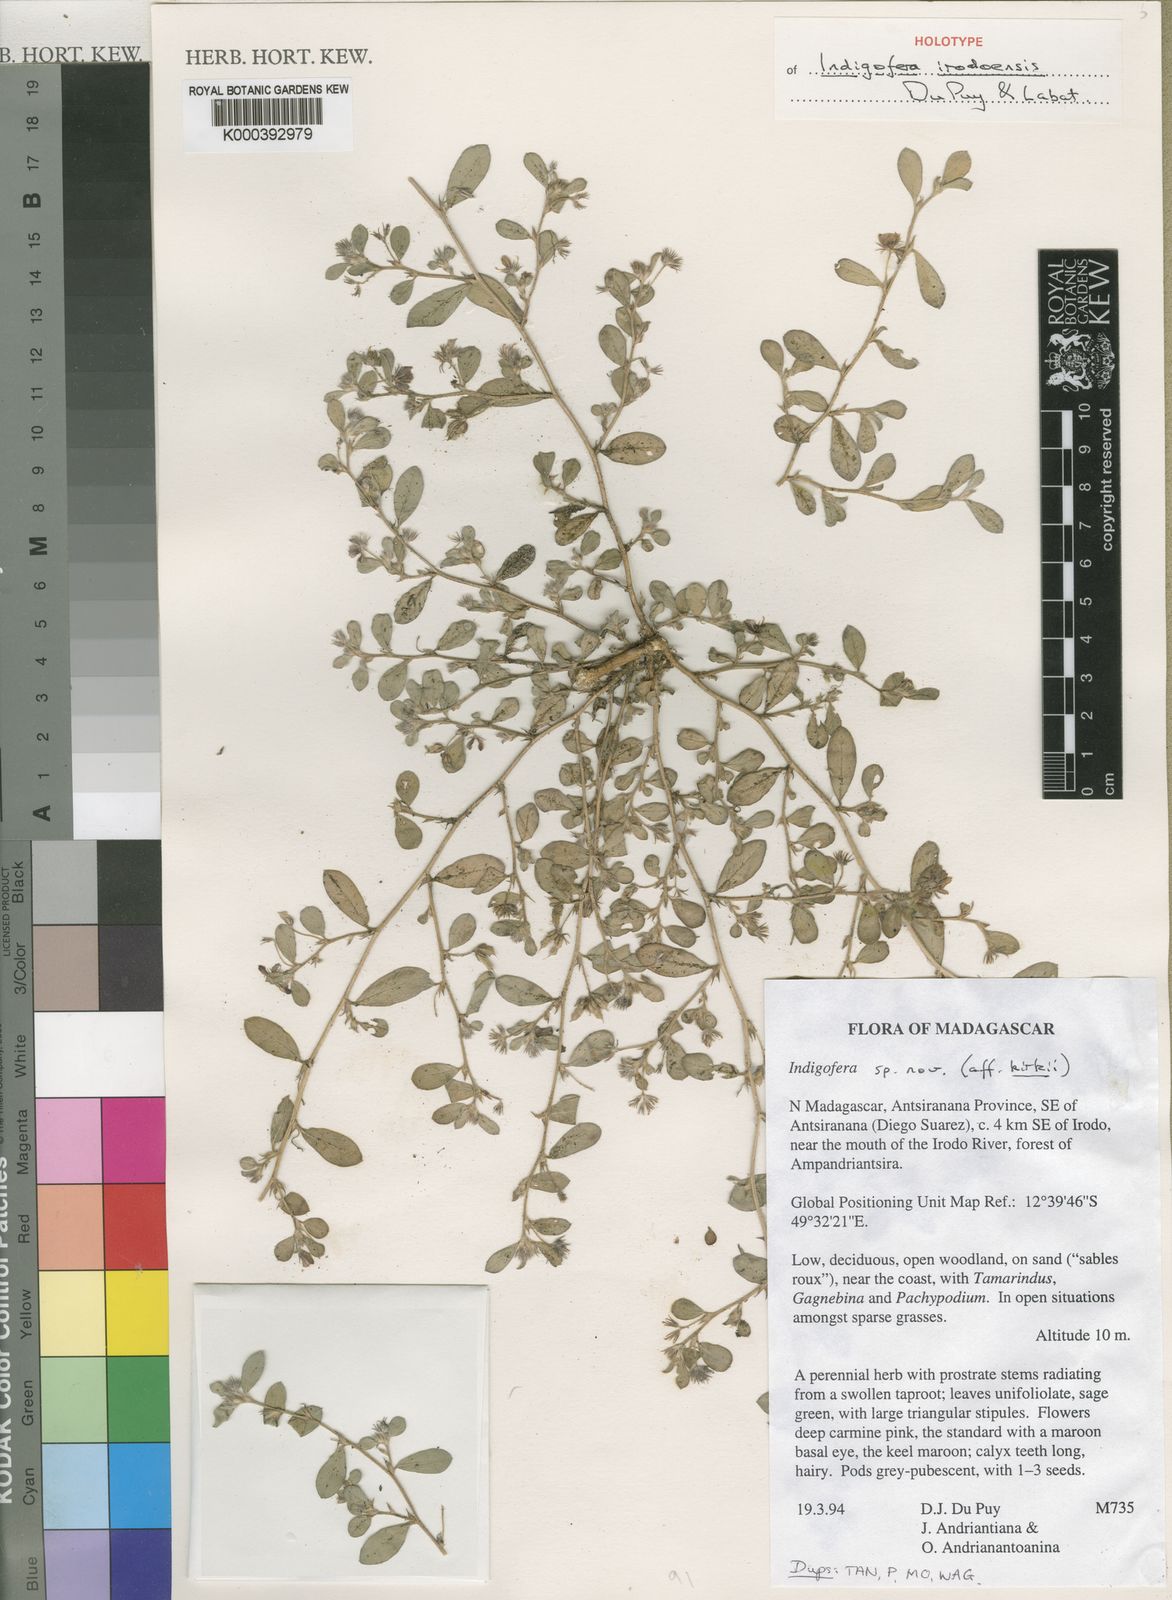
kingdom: Plantae
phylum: Tracheophyta
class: Magnoliopsida
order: Fabales
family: Fabaceae
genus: Indigofera
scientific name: Indigofera irodoensis
